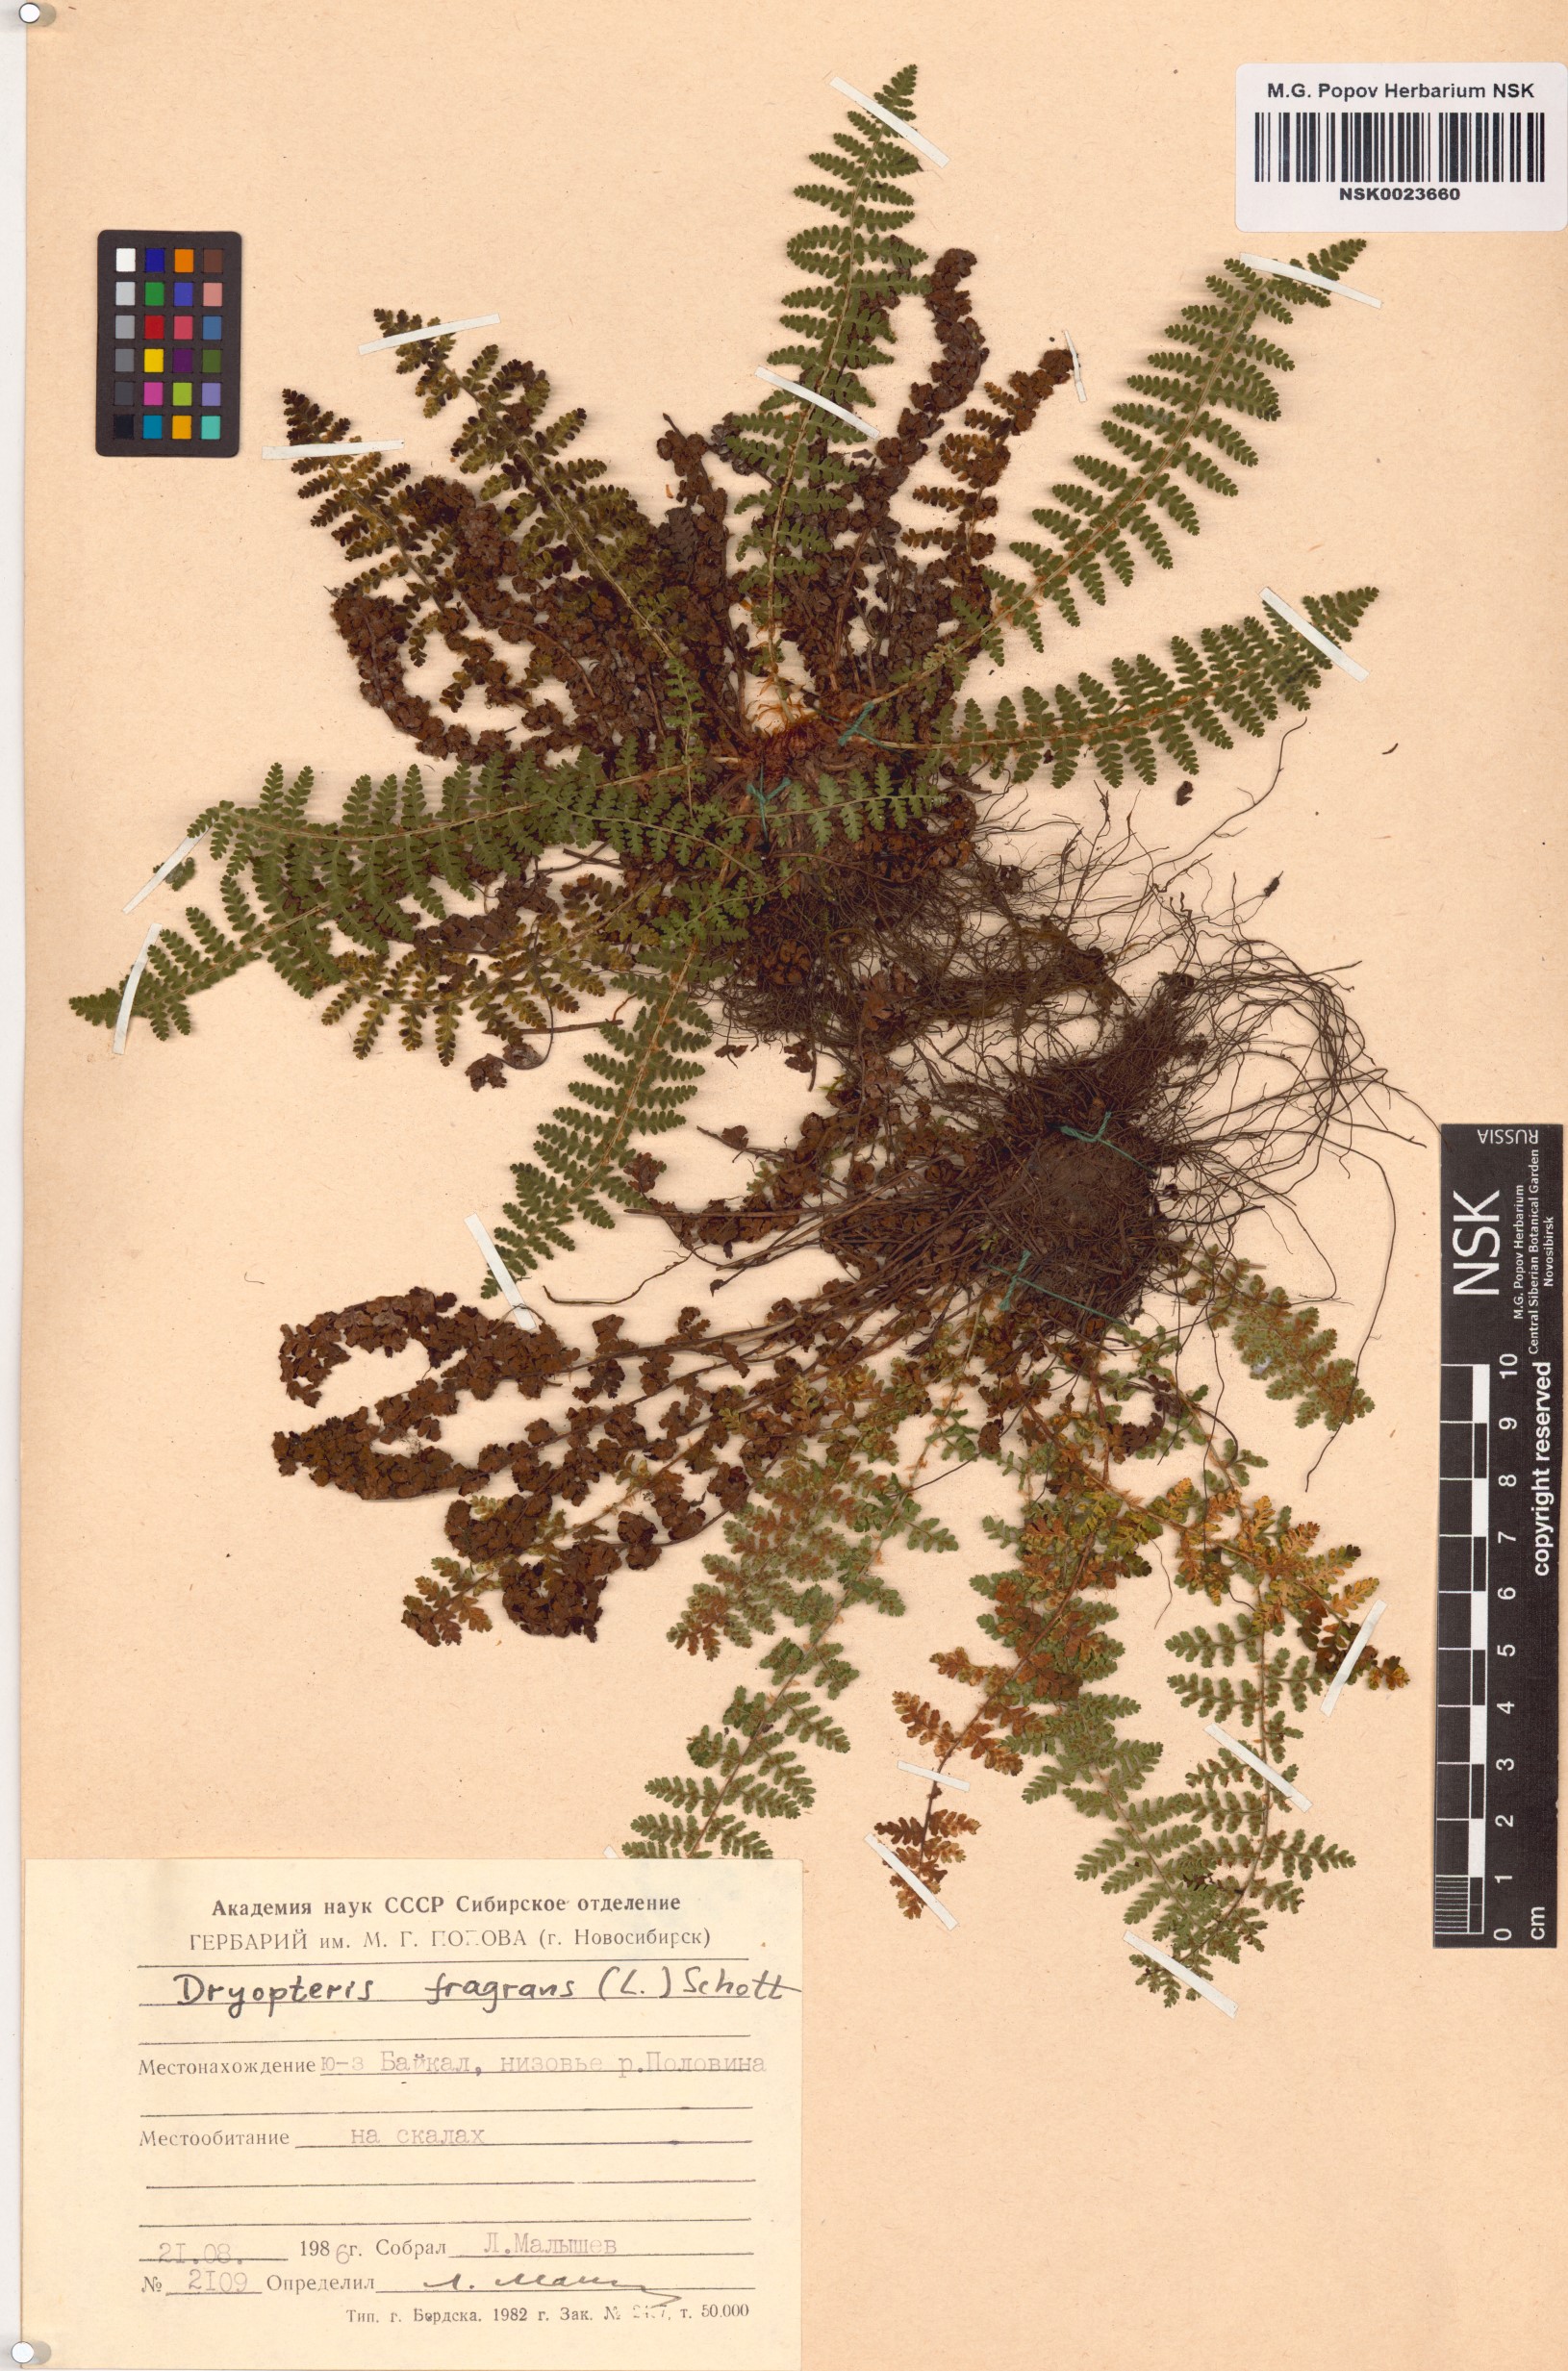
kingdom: Plantae
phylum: Tracheophyta
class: Polypodiopsida
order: Polypodiales
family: Dryopteridaceae
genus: Dryopteris
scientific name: Dryopteris fragrans
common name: Fragrant wood fern
